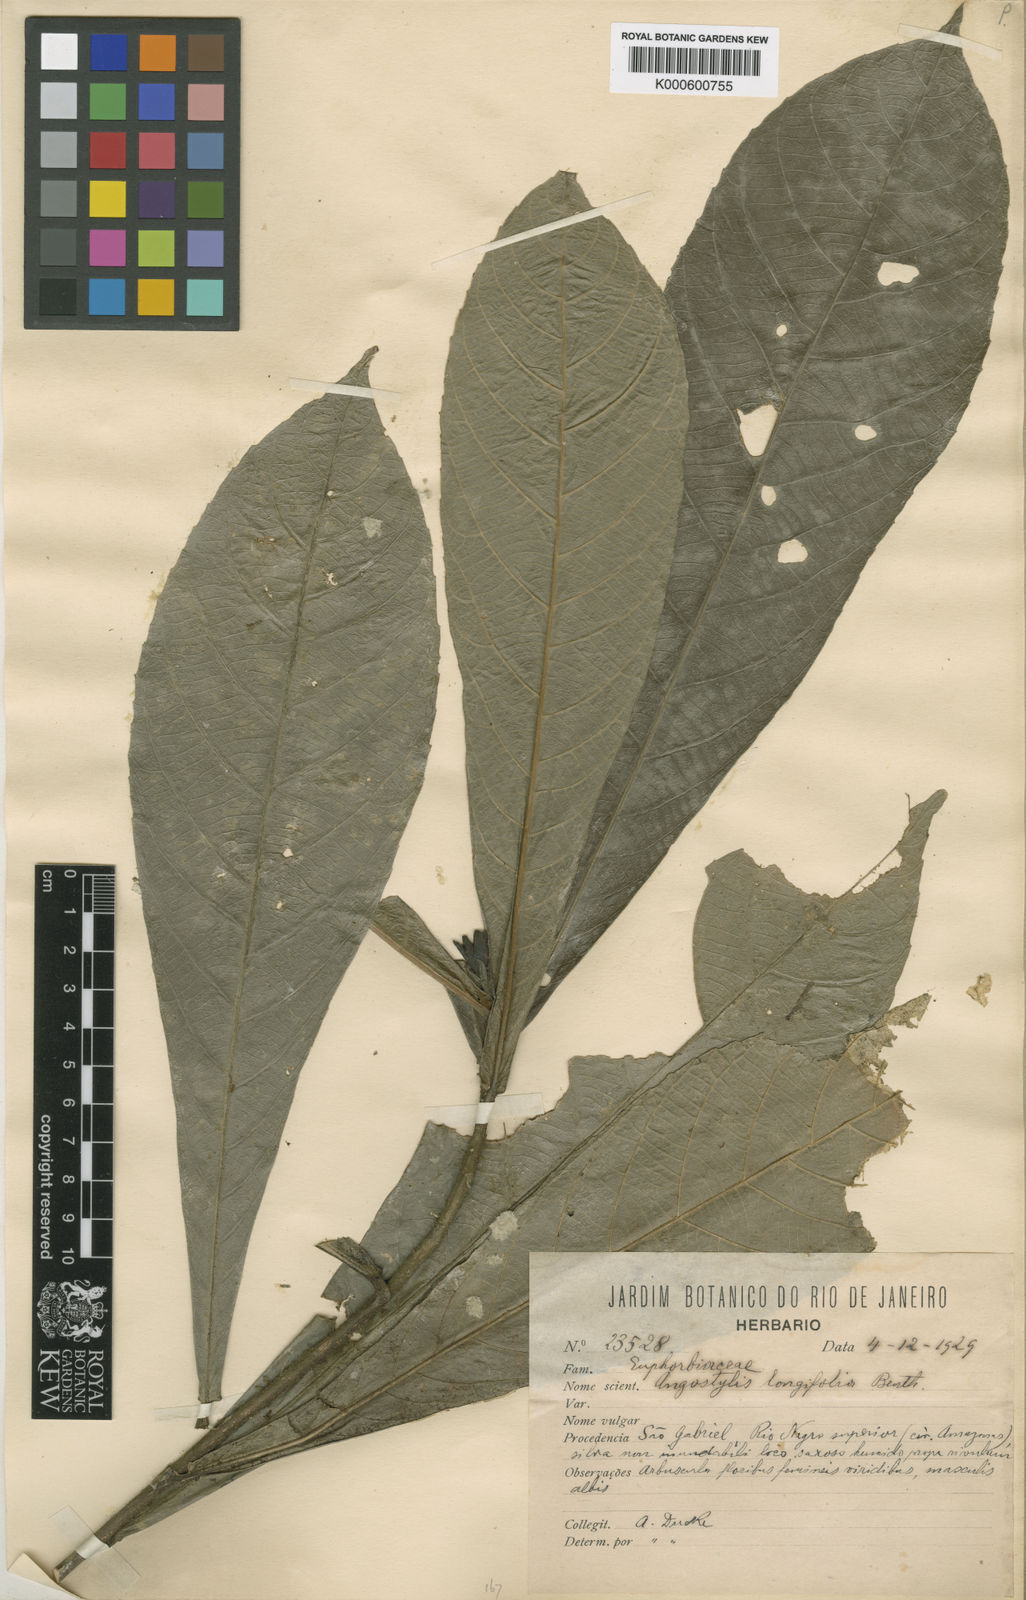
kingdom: Plantae
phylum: Tracheophyta
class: Magnoliopsida
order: Malpighiales
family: Euphorbiaceae
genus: Angostylis
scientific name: Angostylis longifolia
